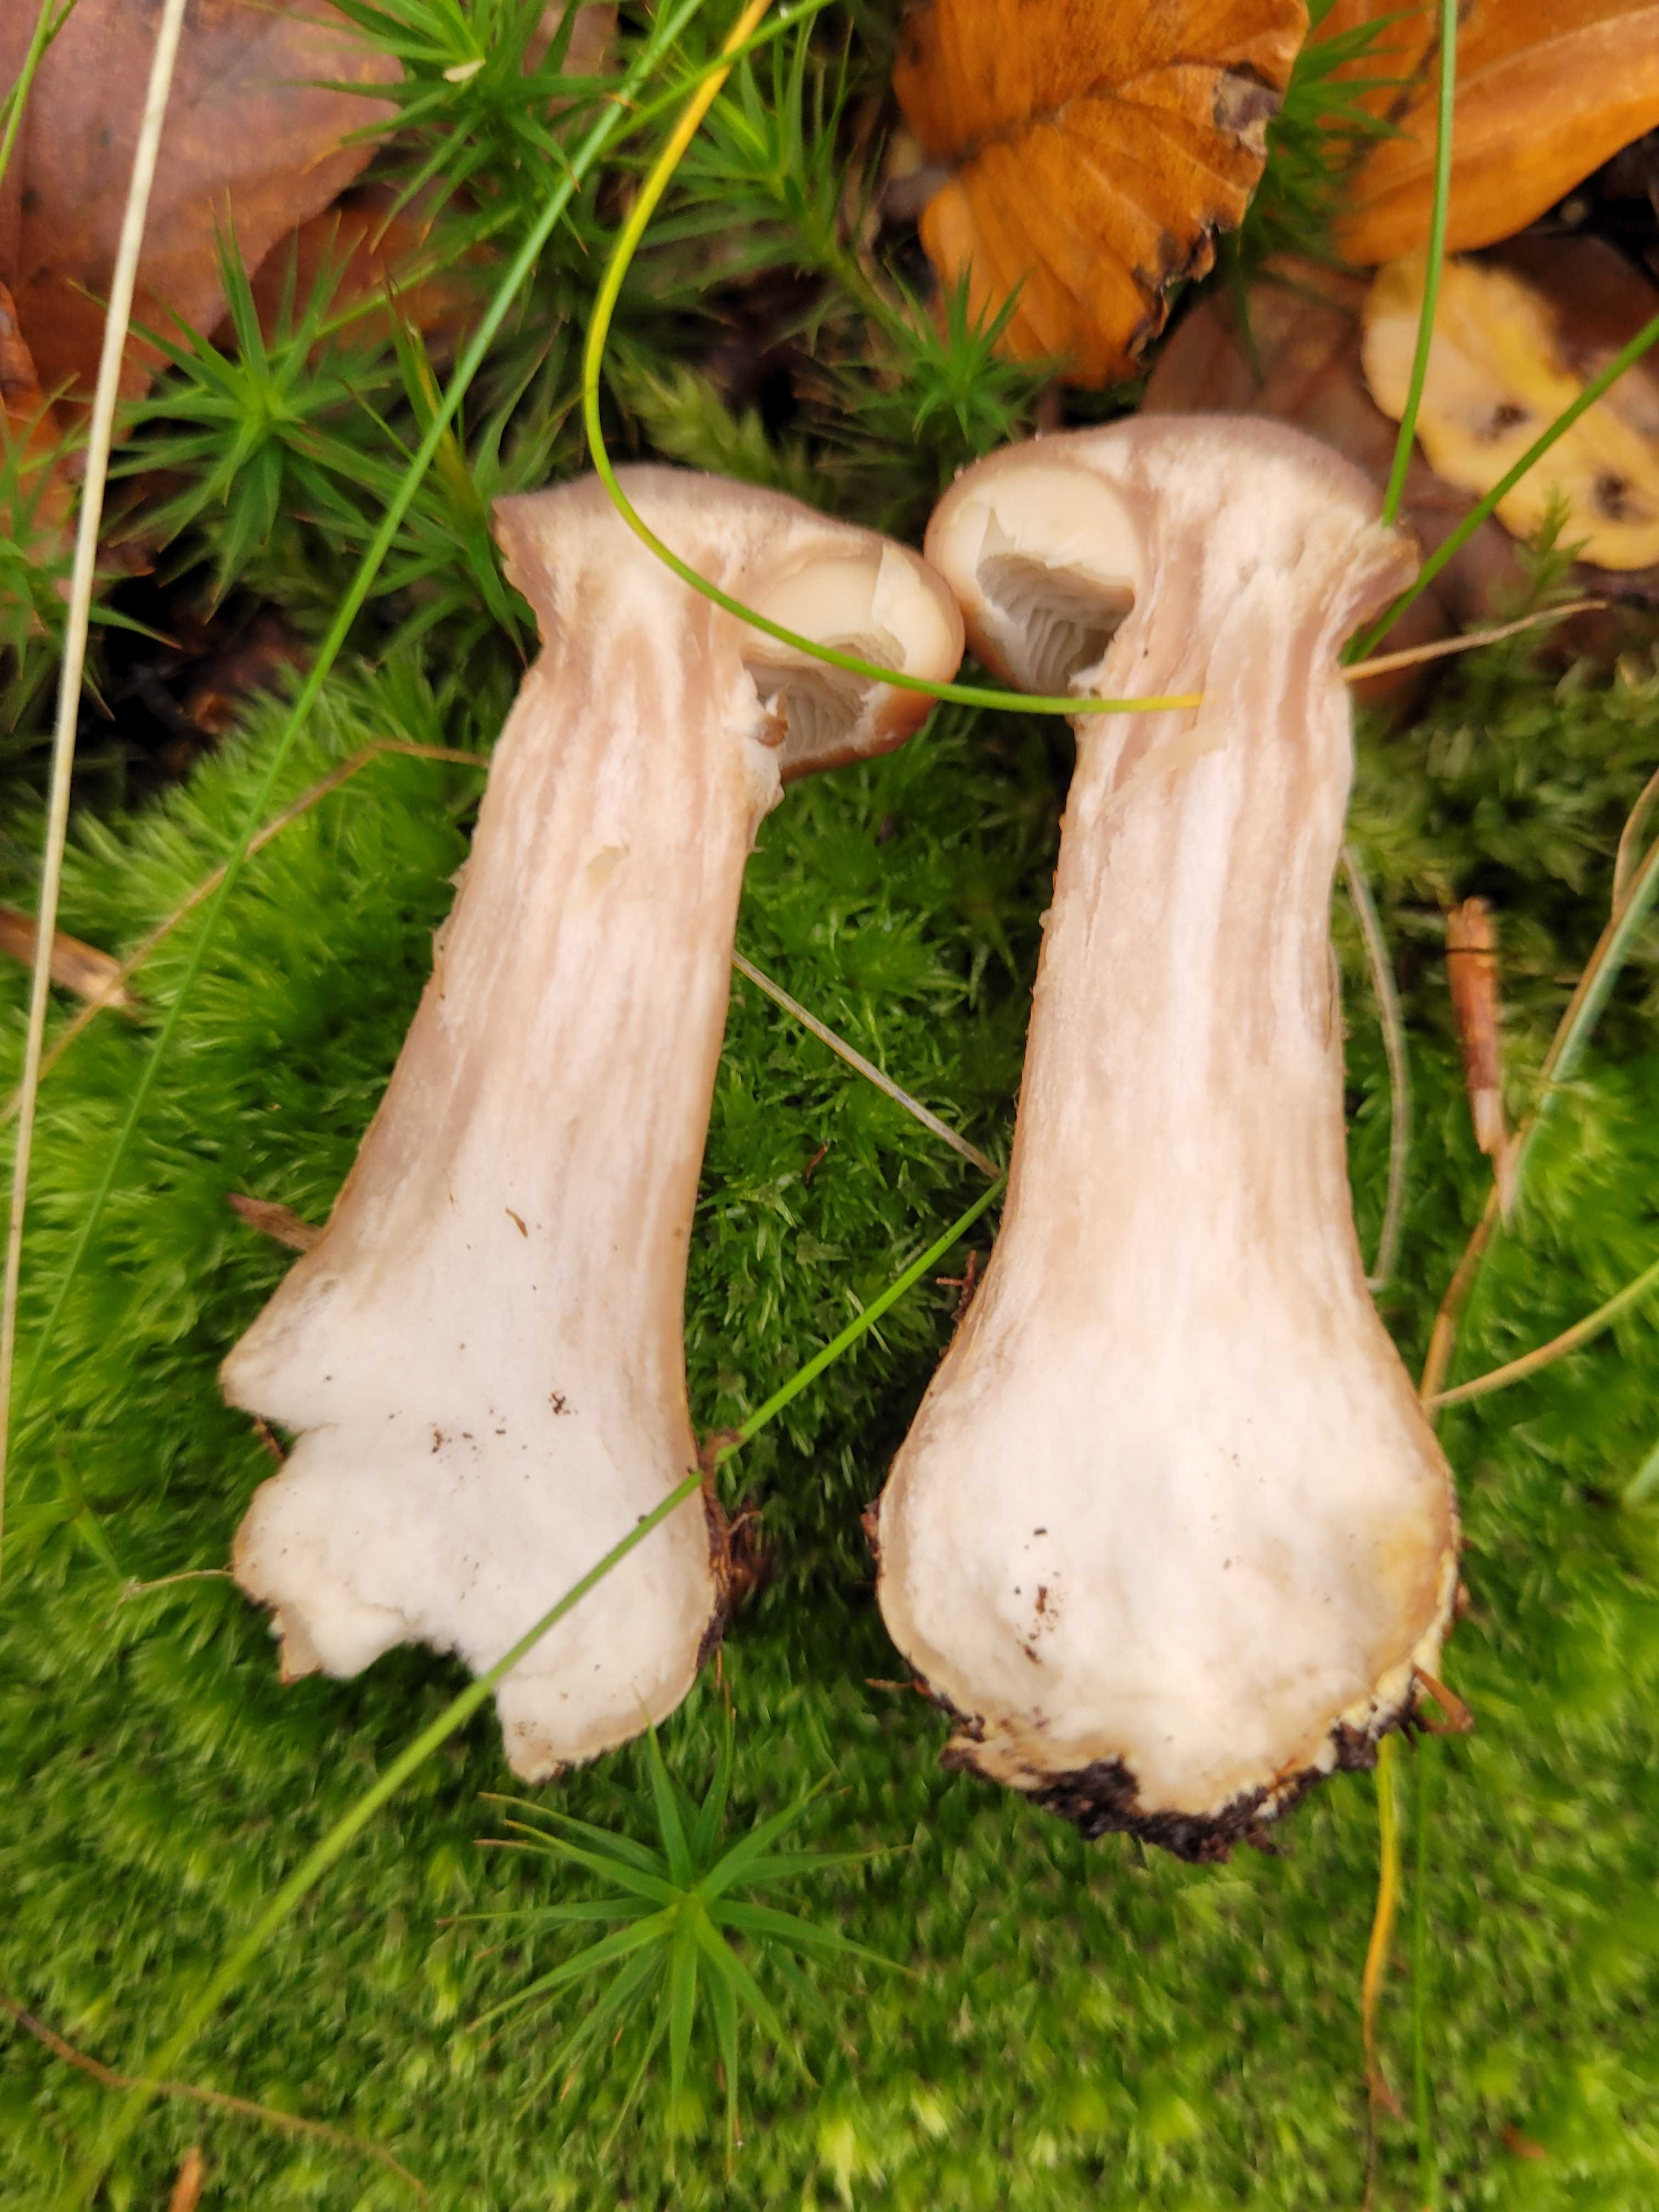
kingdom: Fungi
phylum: Basidiomycota
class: Agaricomycetes
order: Agaricales
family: Physalacriaceae
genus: Armillaria
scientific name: Armillaria lutea
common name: køllestokket honningsvamp
